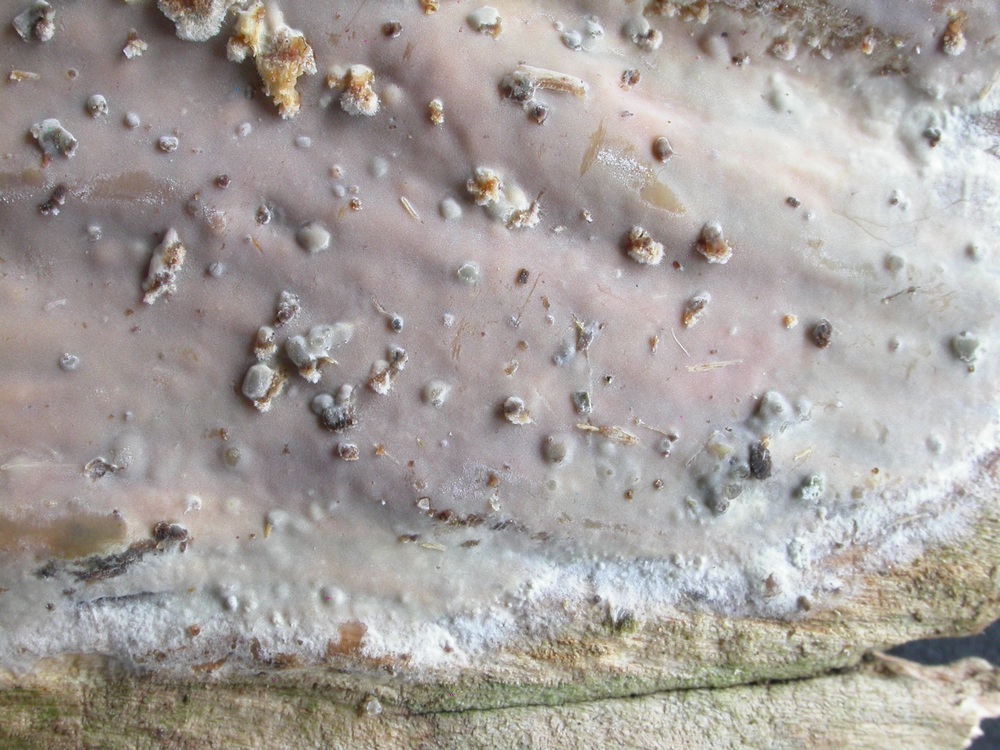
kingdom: Fungi
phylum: Basidiomycota
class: Agaricomycetes
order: Russulales
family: Peniophoraceae
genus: Scytinostroma
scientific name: Scytinostroma hemidichophyticum
